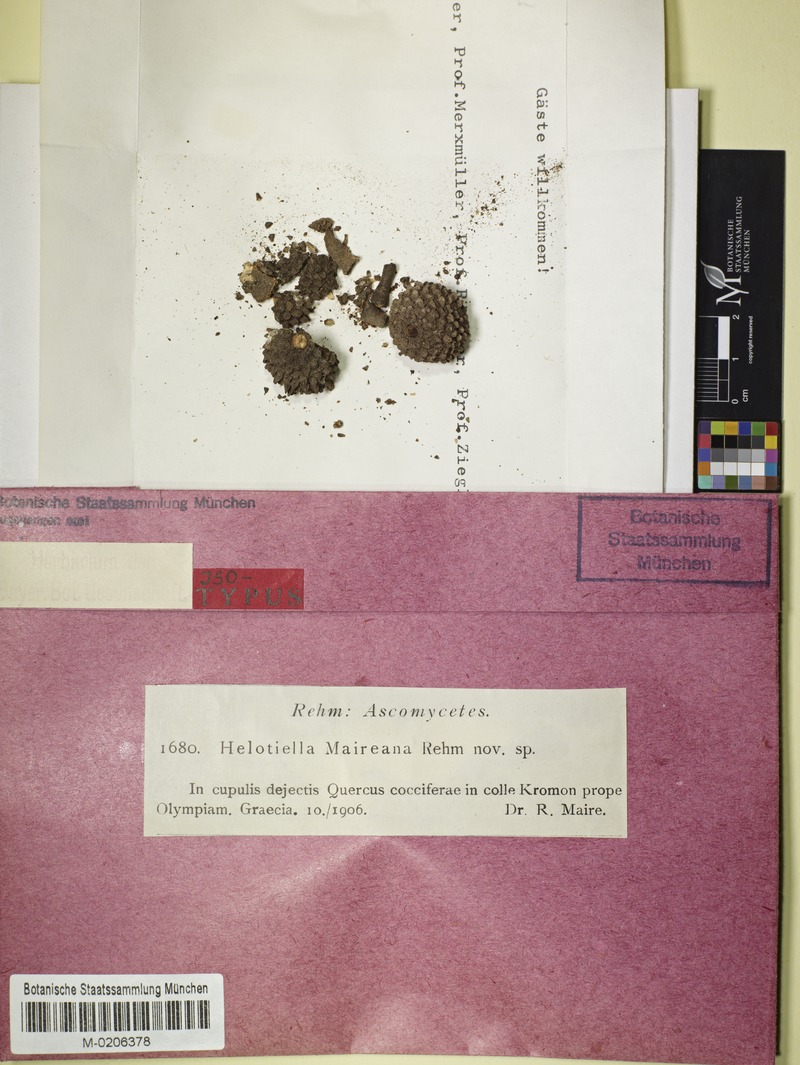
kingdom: Fungi
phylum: Ascomycota
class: Leotiomycetes
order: Helotiales
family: Helotiaceae
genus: Bisporella
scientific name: Bisporella maireana
